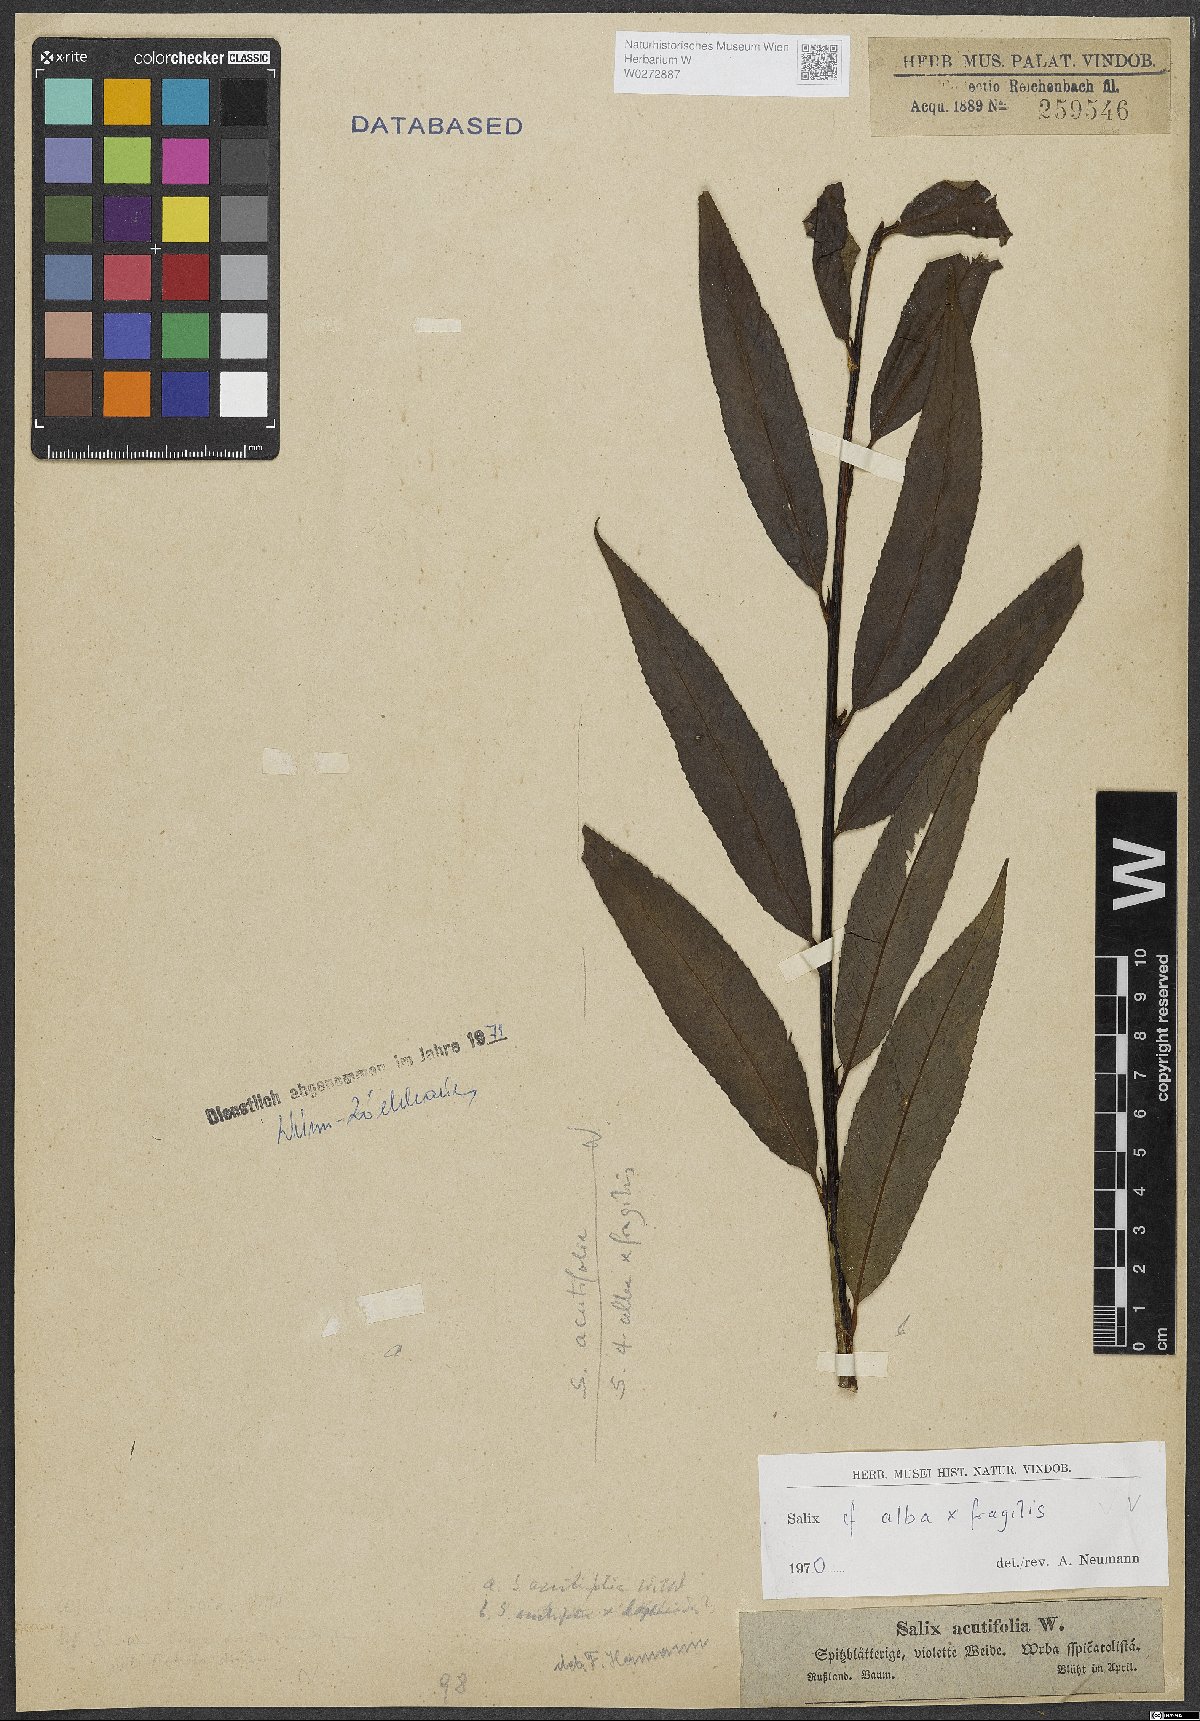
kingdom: Plantae
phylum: Tracheophyta
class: Magnoliopsida
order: Malpighiales
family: Salicaceae
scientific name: Salicaceae
